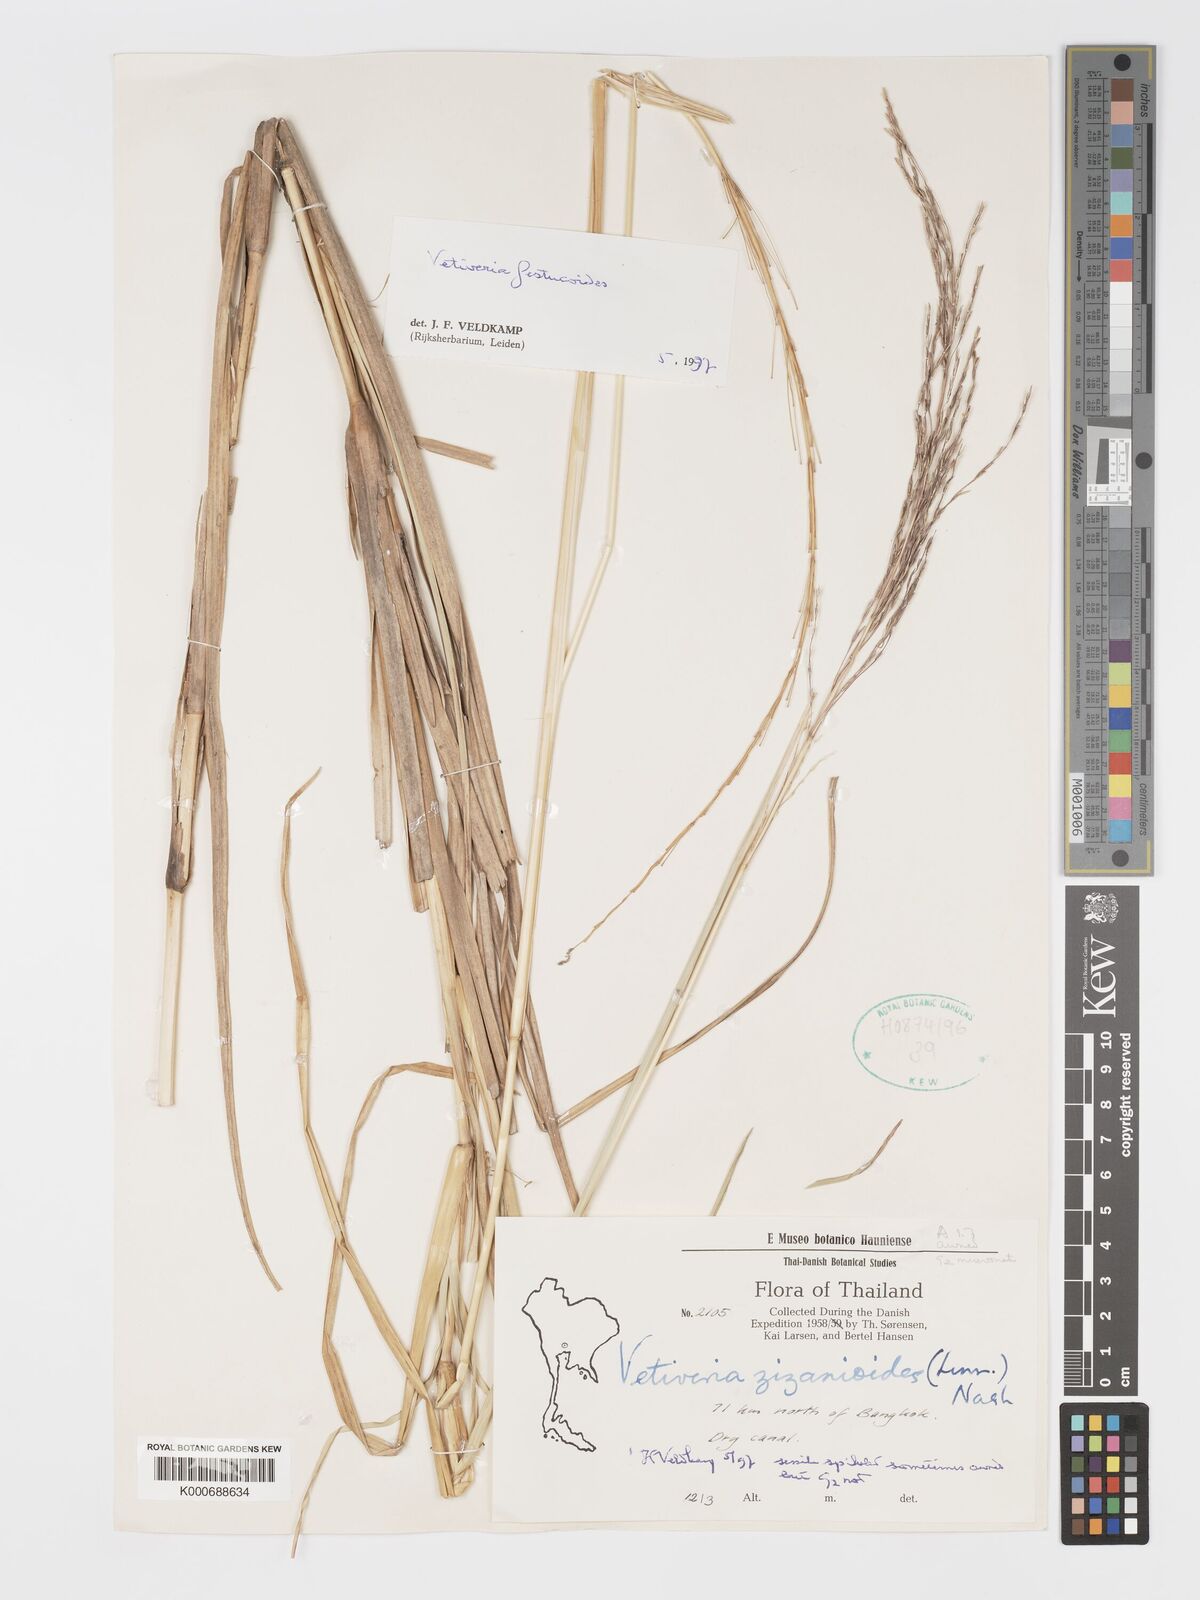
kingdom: Plantae
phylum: Tracheophyta
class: Liliopsida
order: Poales
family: Poaceae
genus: Chrysopogon
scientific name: Chrysopogon festucoides
